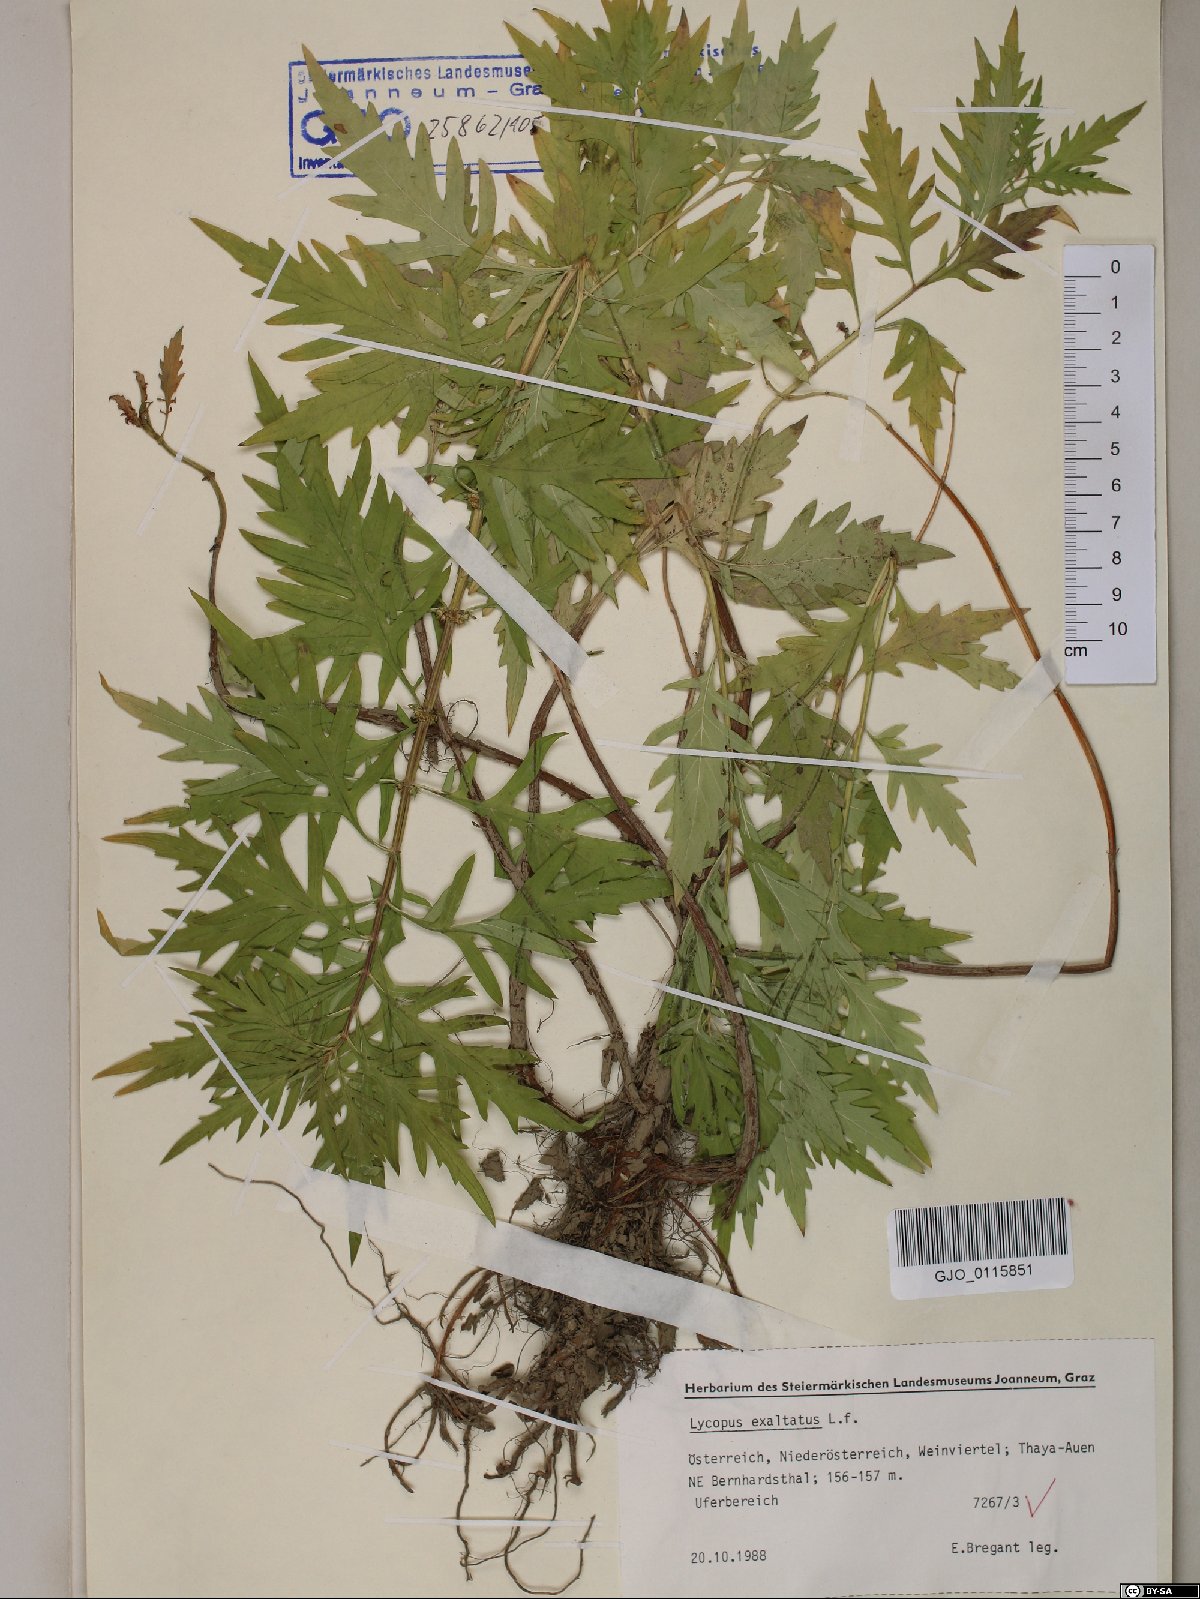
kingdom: Plantae
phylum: Tracheophyta
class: Magnoliopsida
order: Lamiales
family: Lamiaceae
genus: Lycopus
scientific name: Lycopus exaltatus
